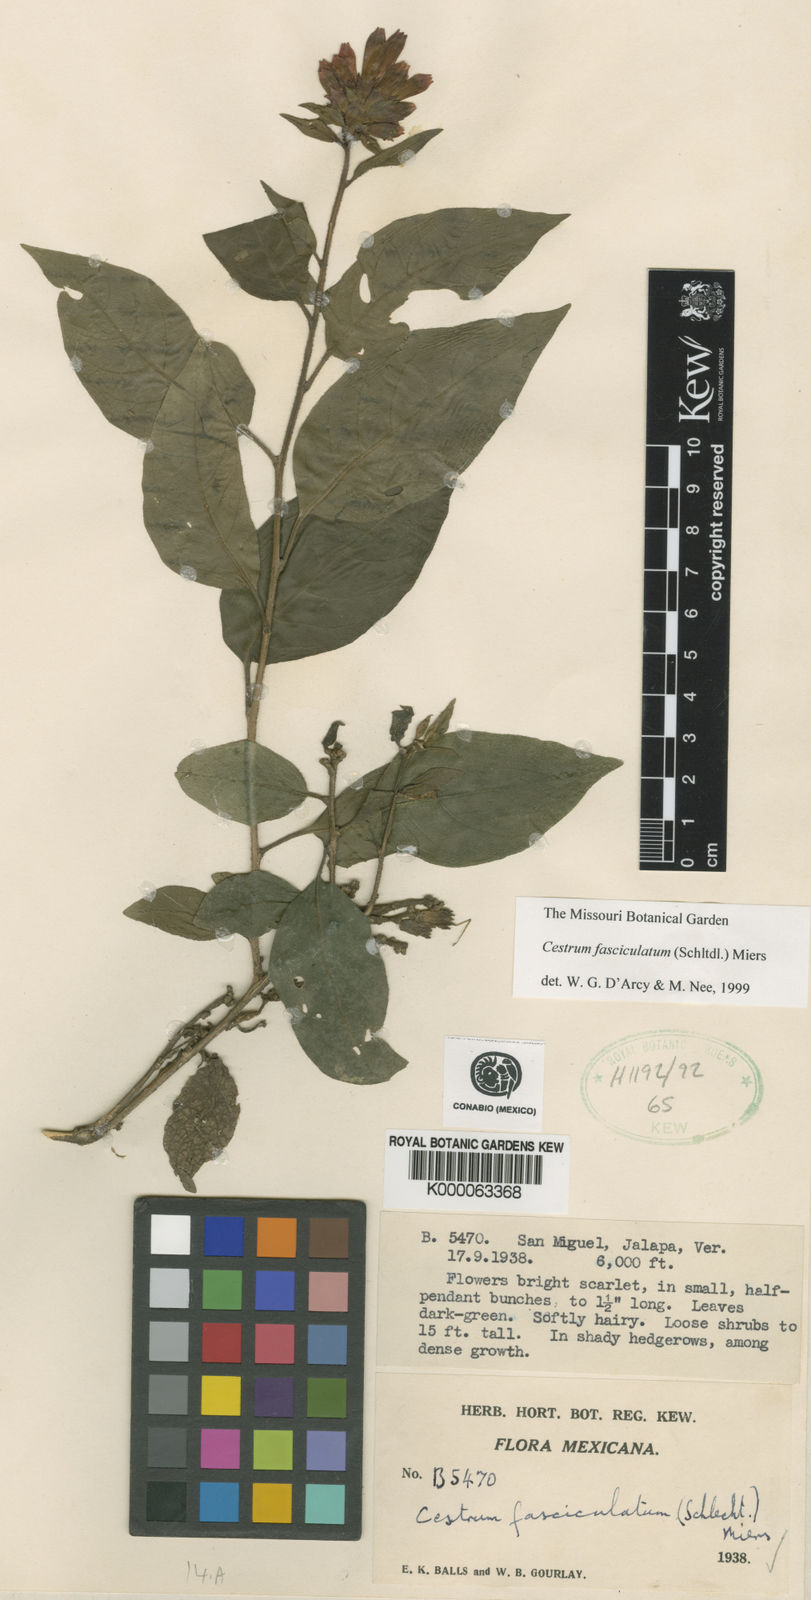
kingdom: Plantae
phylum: Tracheophyta
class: Magnoliopsida
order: Solanales
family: Solanaceae
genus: Cestrum
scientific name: Cestrum fasciculatum
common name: Early jessamine
